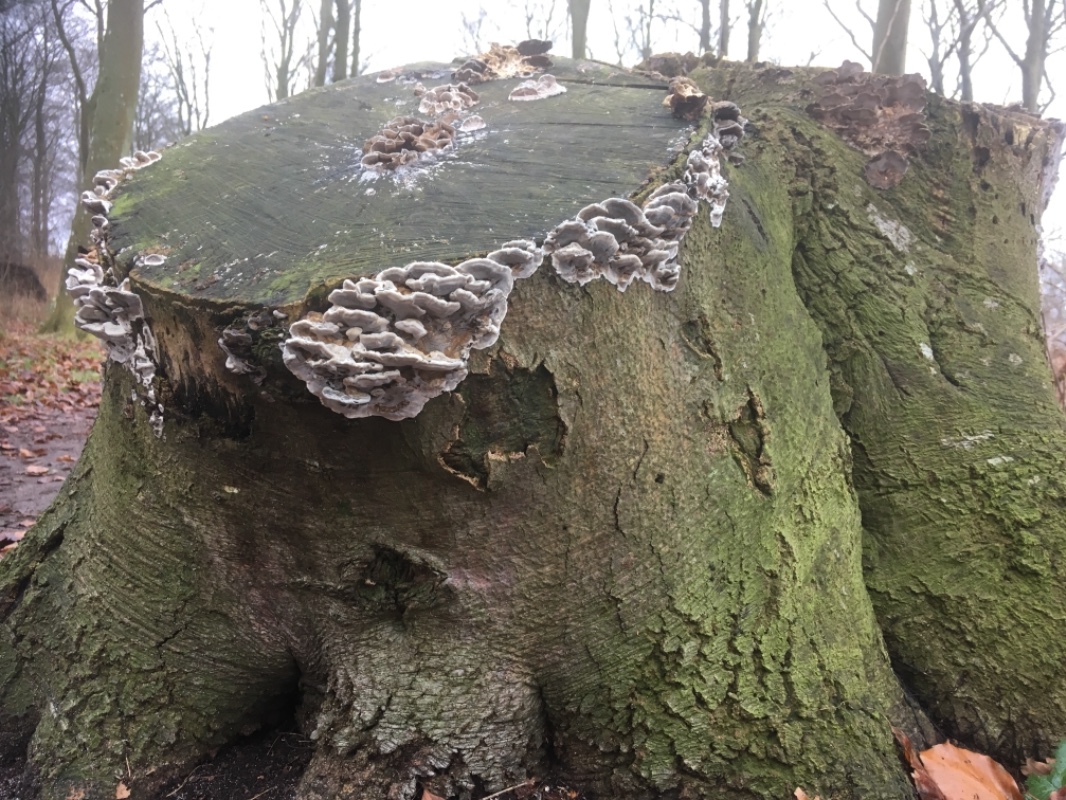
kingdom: Fungi
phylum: Basidiomycota
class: Agaricomycetes
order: Polyporales
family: Phanerochaetaceae
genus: Bjerkandera
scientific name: Bjerkandera adusta
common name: sveden sodporesvamp
